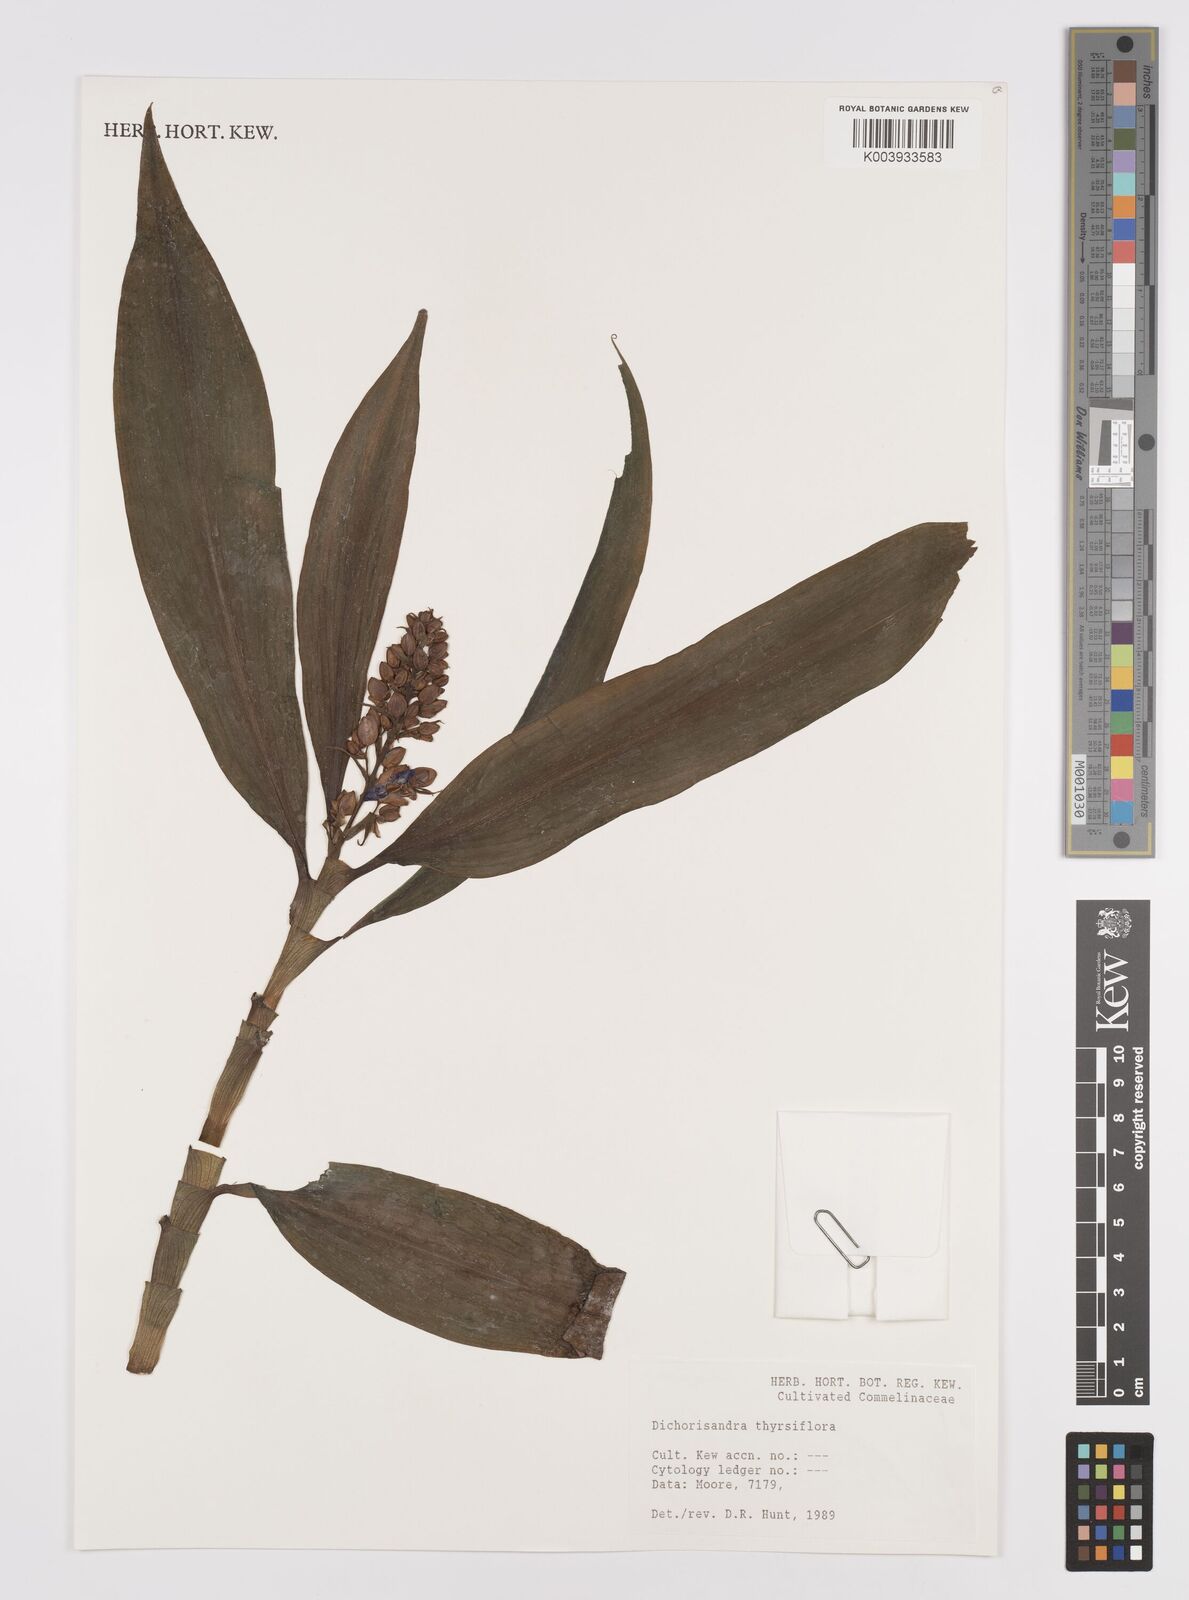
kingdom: Plantae
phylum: Tracheophyta
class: Liliopsida
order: Commelinales
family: Commelinaceae
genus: Dichorisandra
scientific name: Dichorisandra thyrsiflora
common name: Blue-ginger
